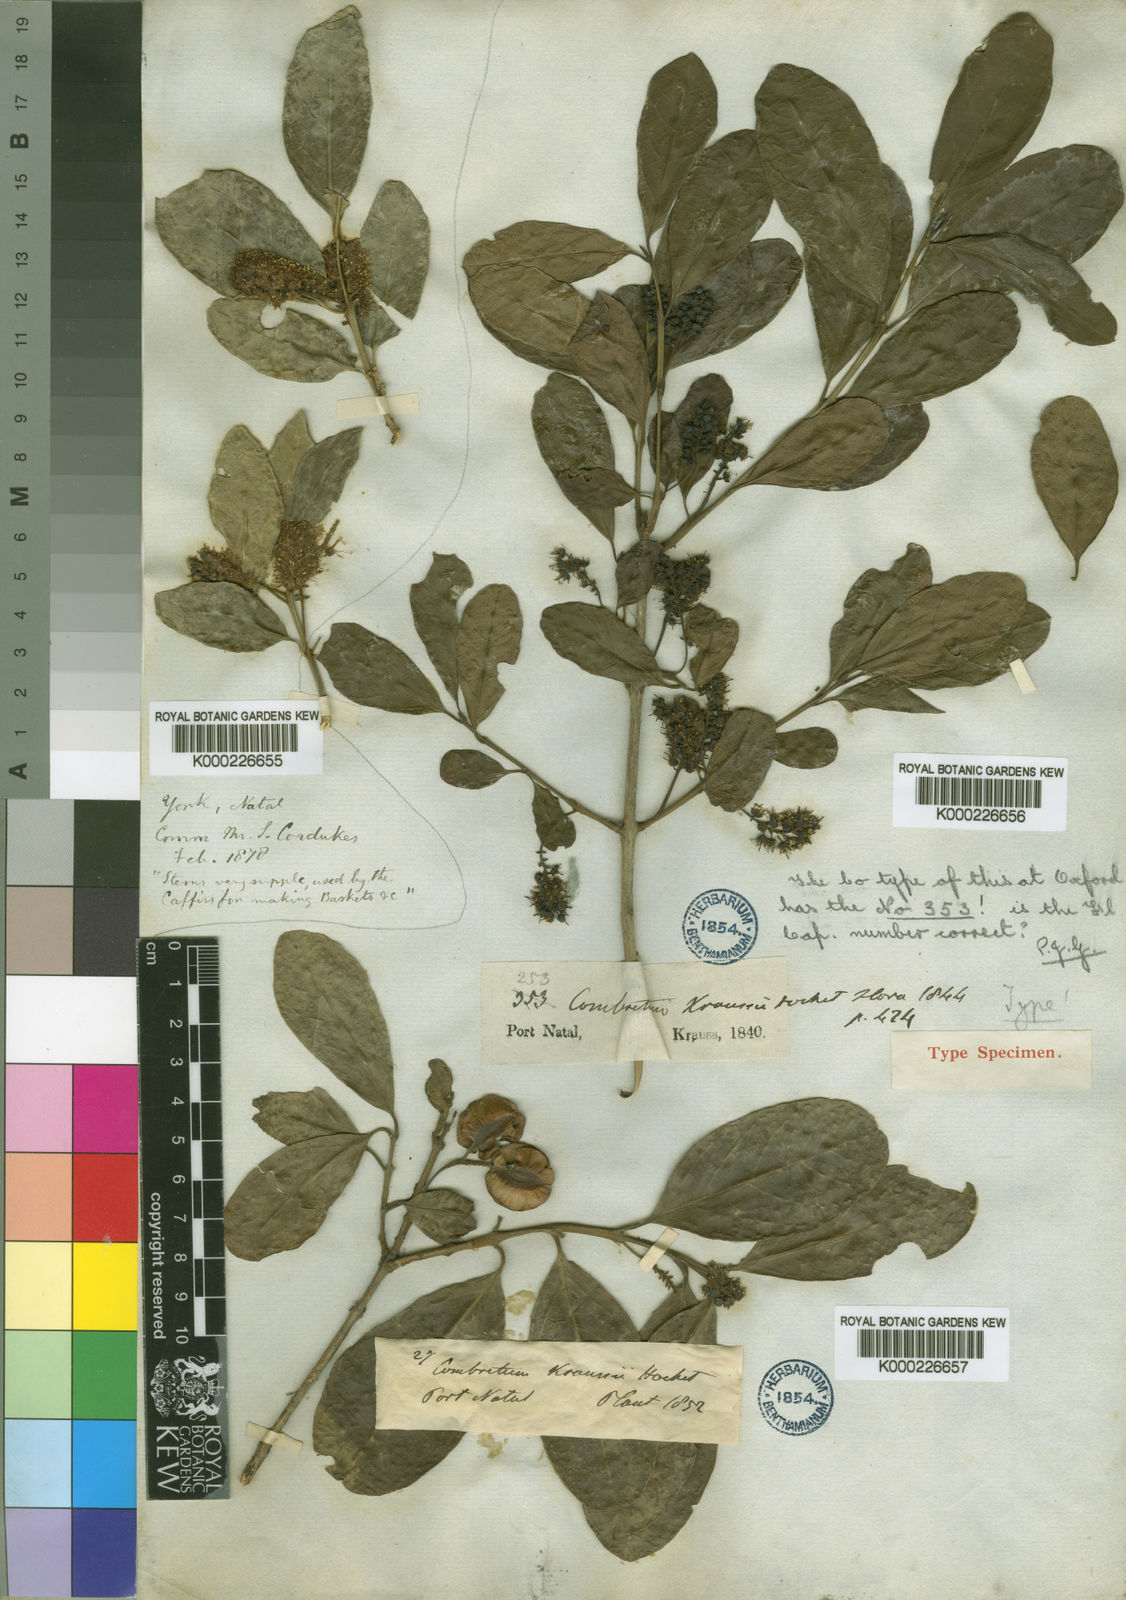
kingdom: Plantae
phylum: Tracheophyta
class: Magnoliopsida
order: Myrtales
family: Combretaceae
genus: Combretum
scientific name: Combretum kraussii
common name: Forest bushwillow
